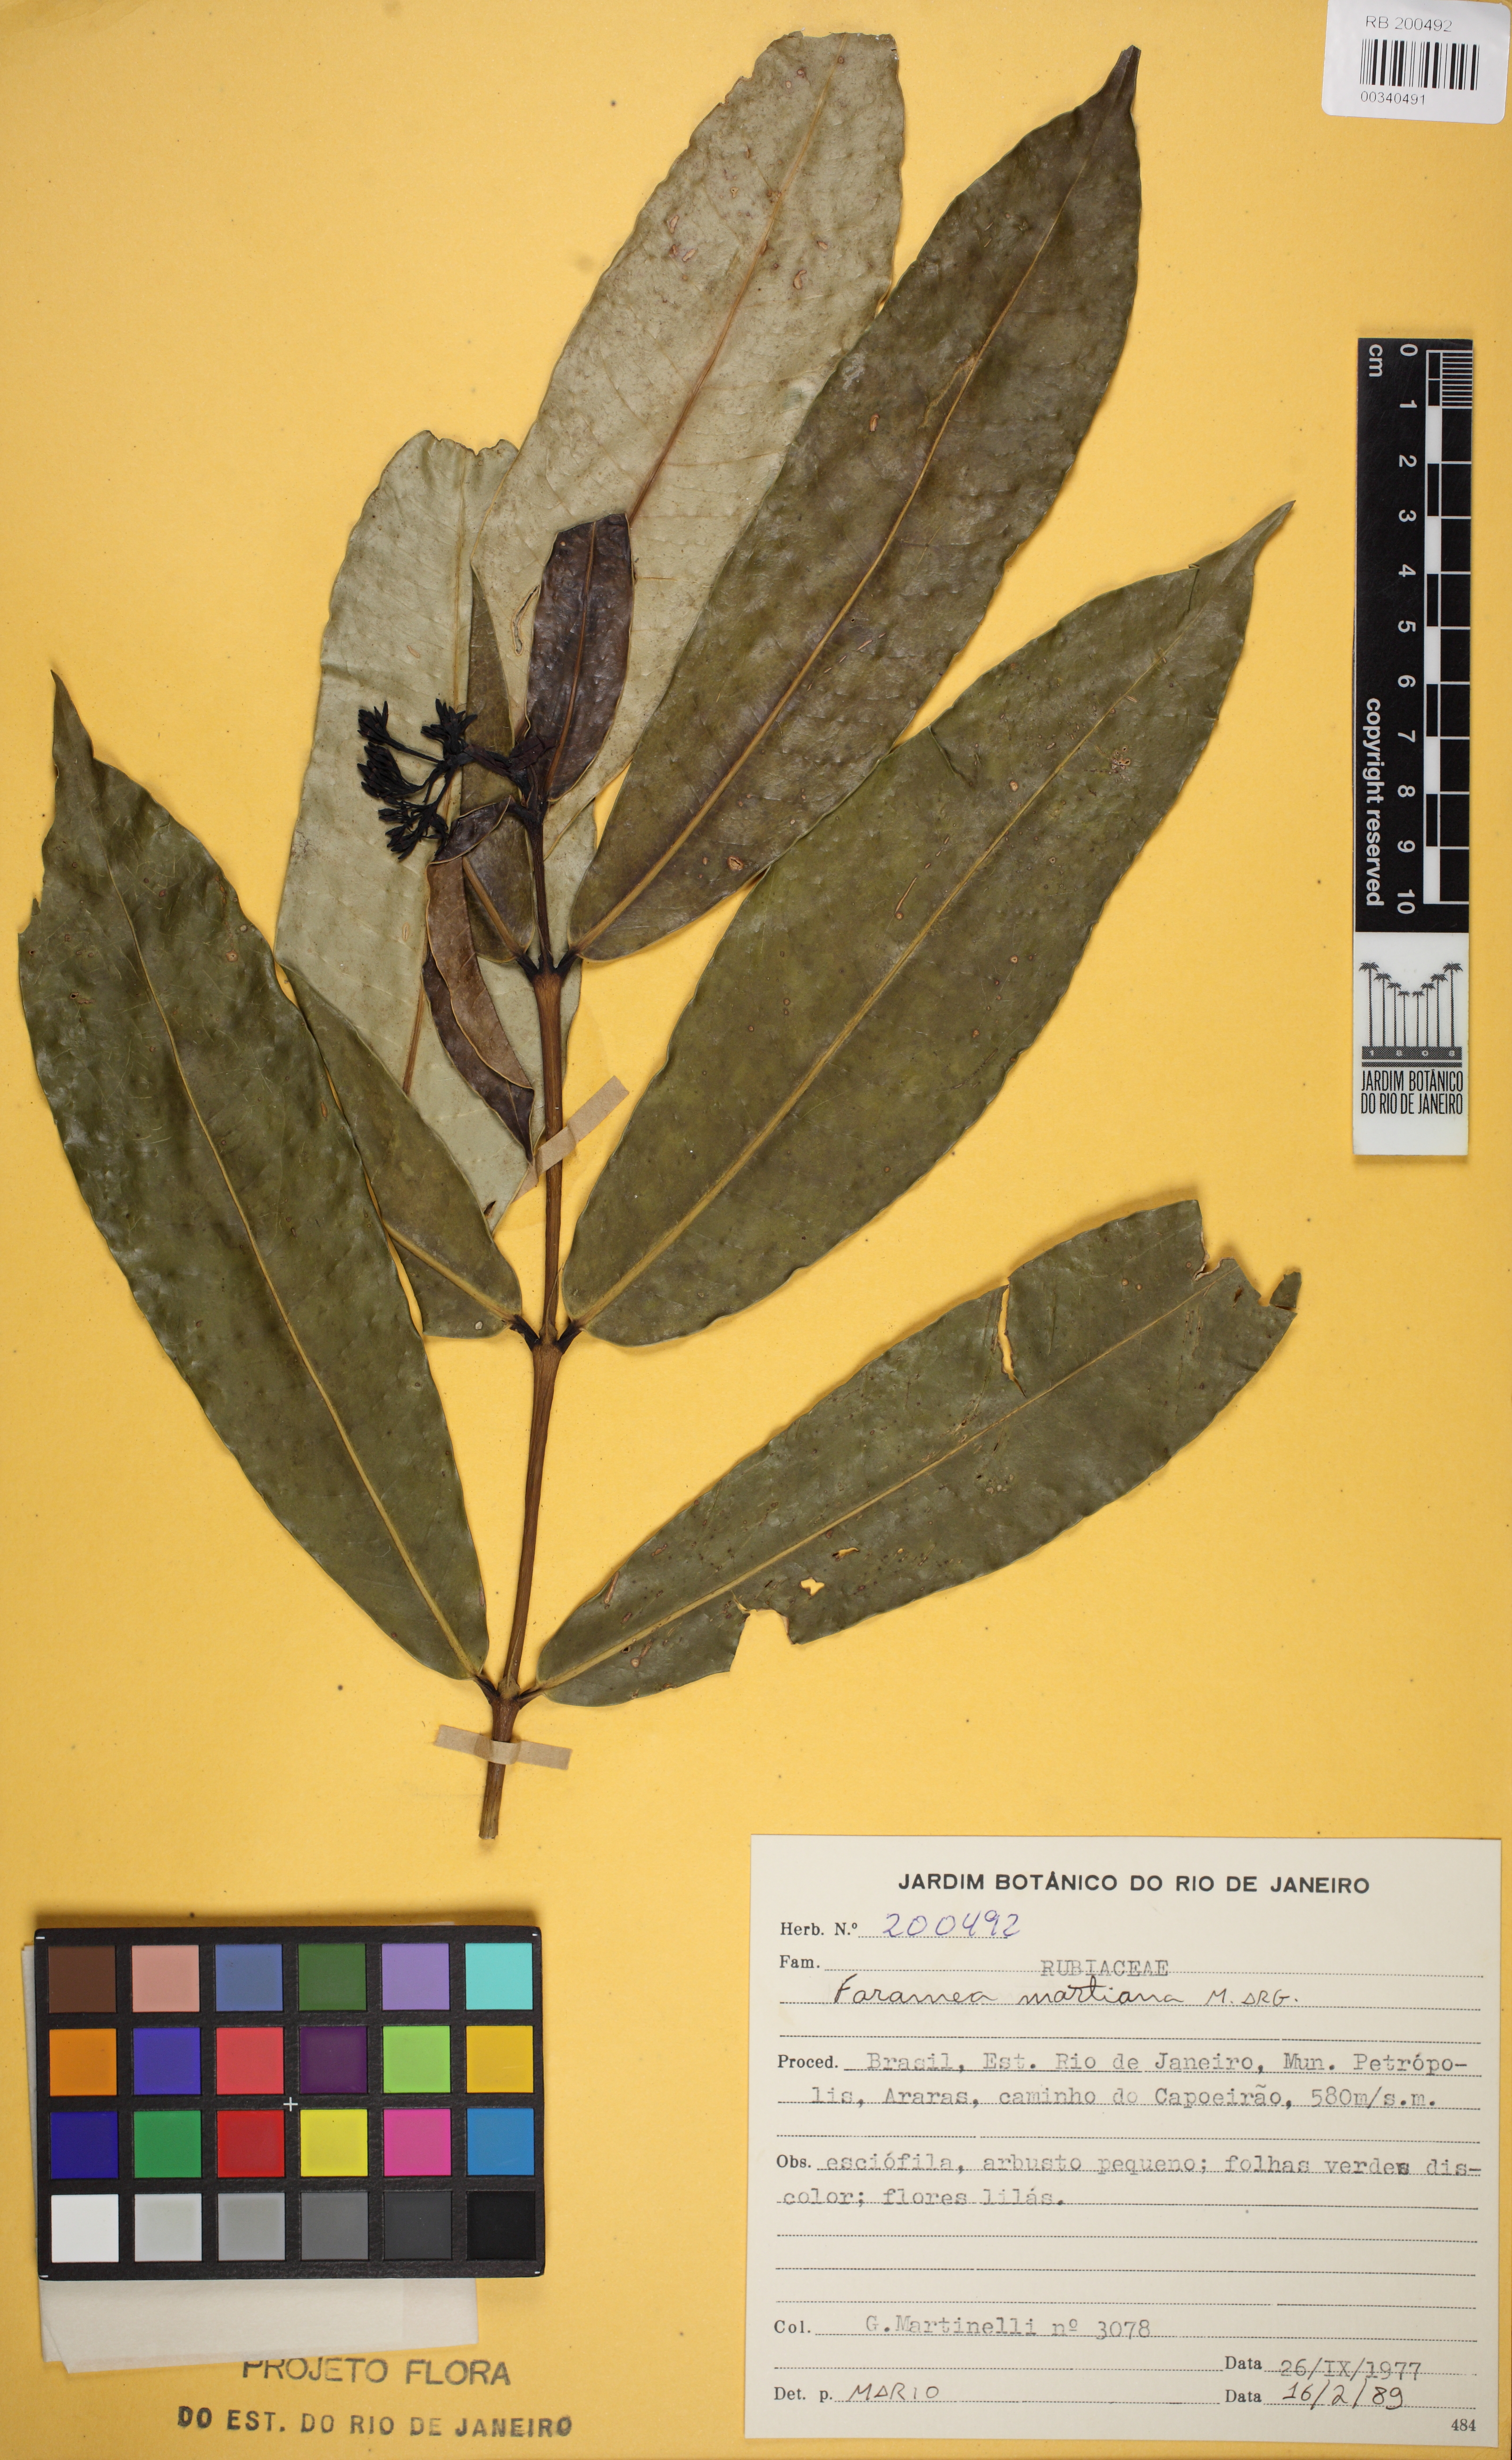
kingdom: Plantae
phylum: Tracheophyta
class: Magnoliopsida
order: Gentianales
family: Rubiaceae
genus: Faramea
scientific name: Faramea martiana
